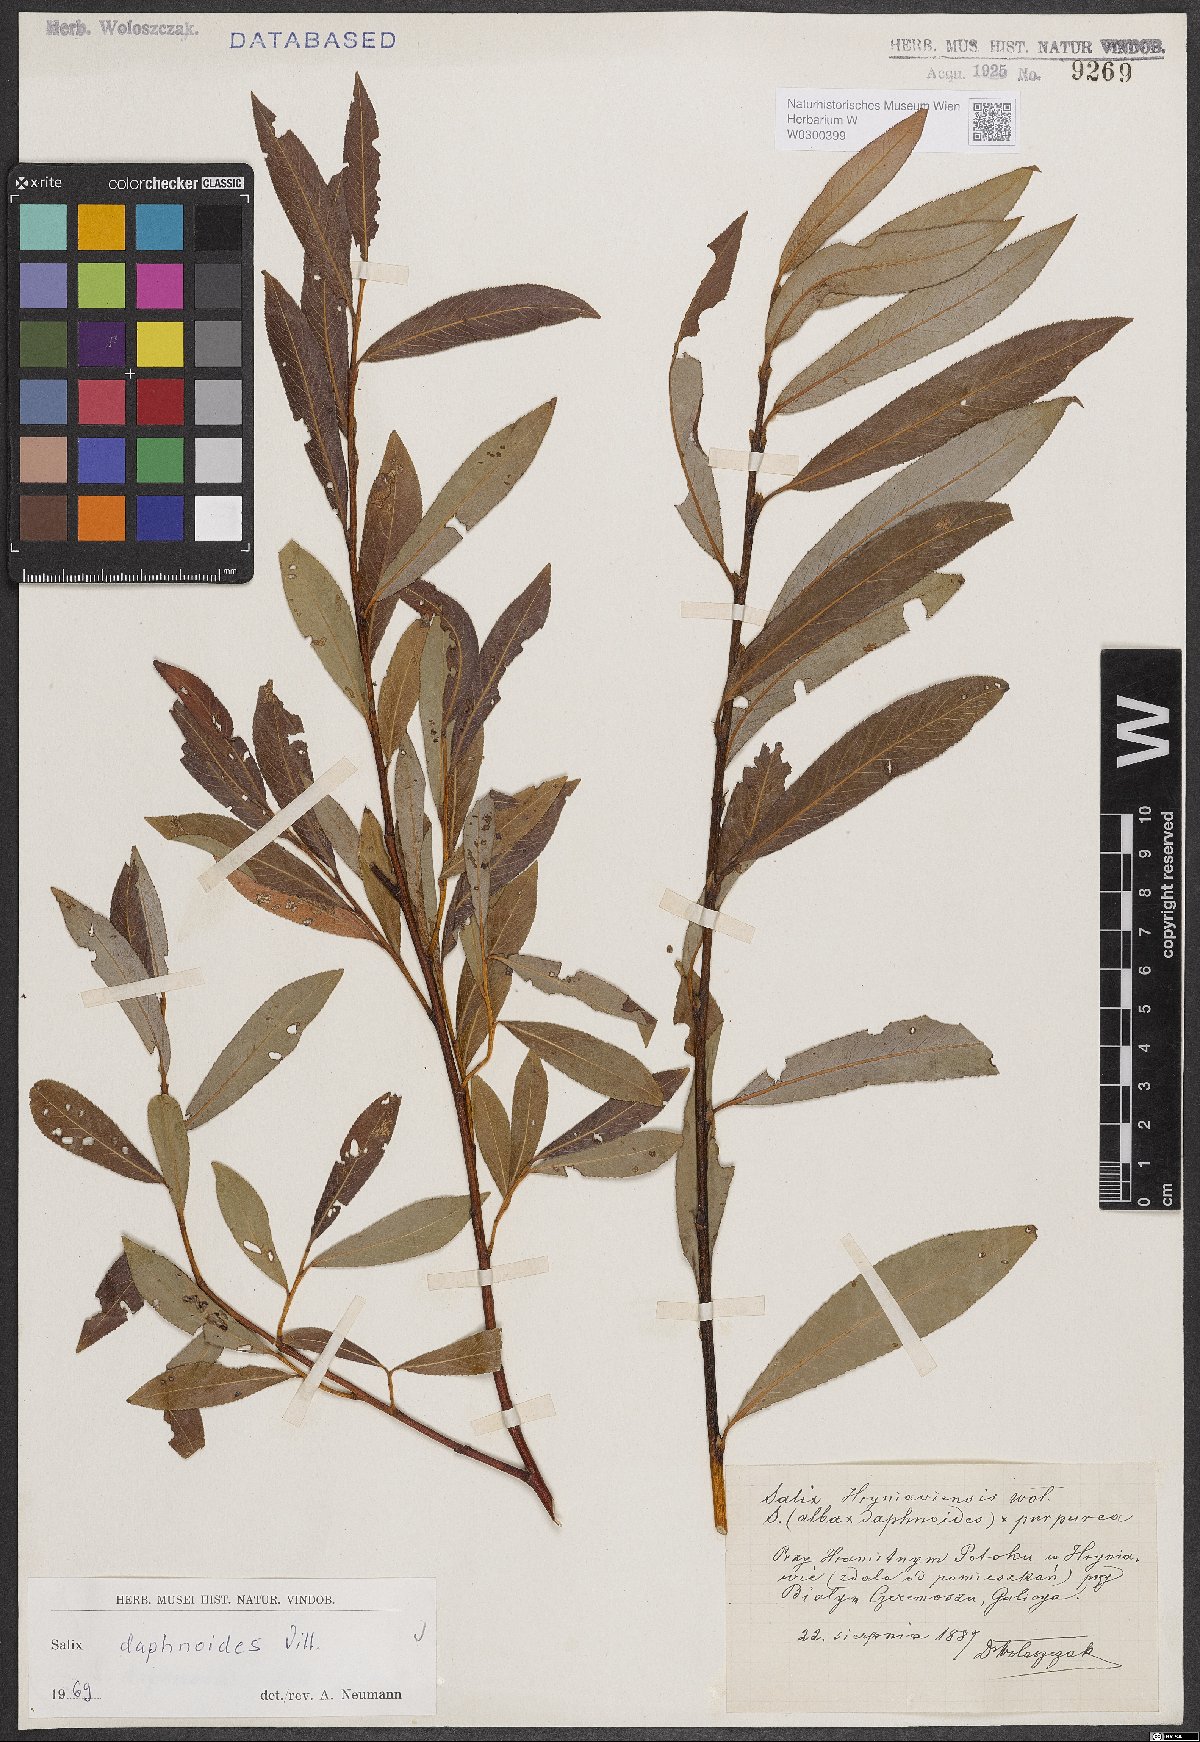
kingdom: Plantae
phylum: Tracheophyta
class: Magnoliopsida
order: Malpighiales
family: Salicaceae
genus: Salix
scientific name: Salix daphnoides
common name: European violet-willow
